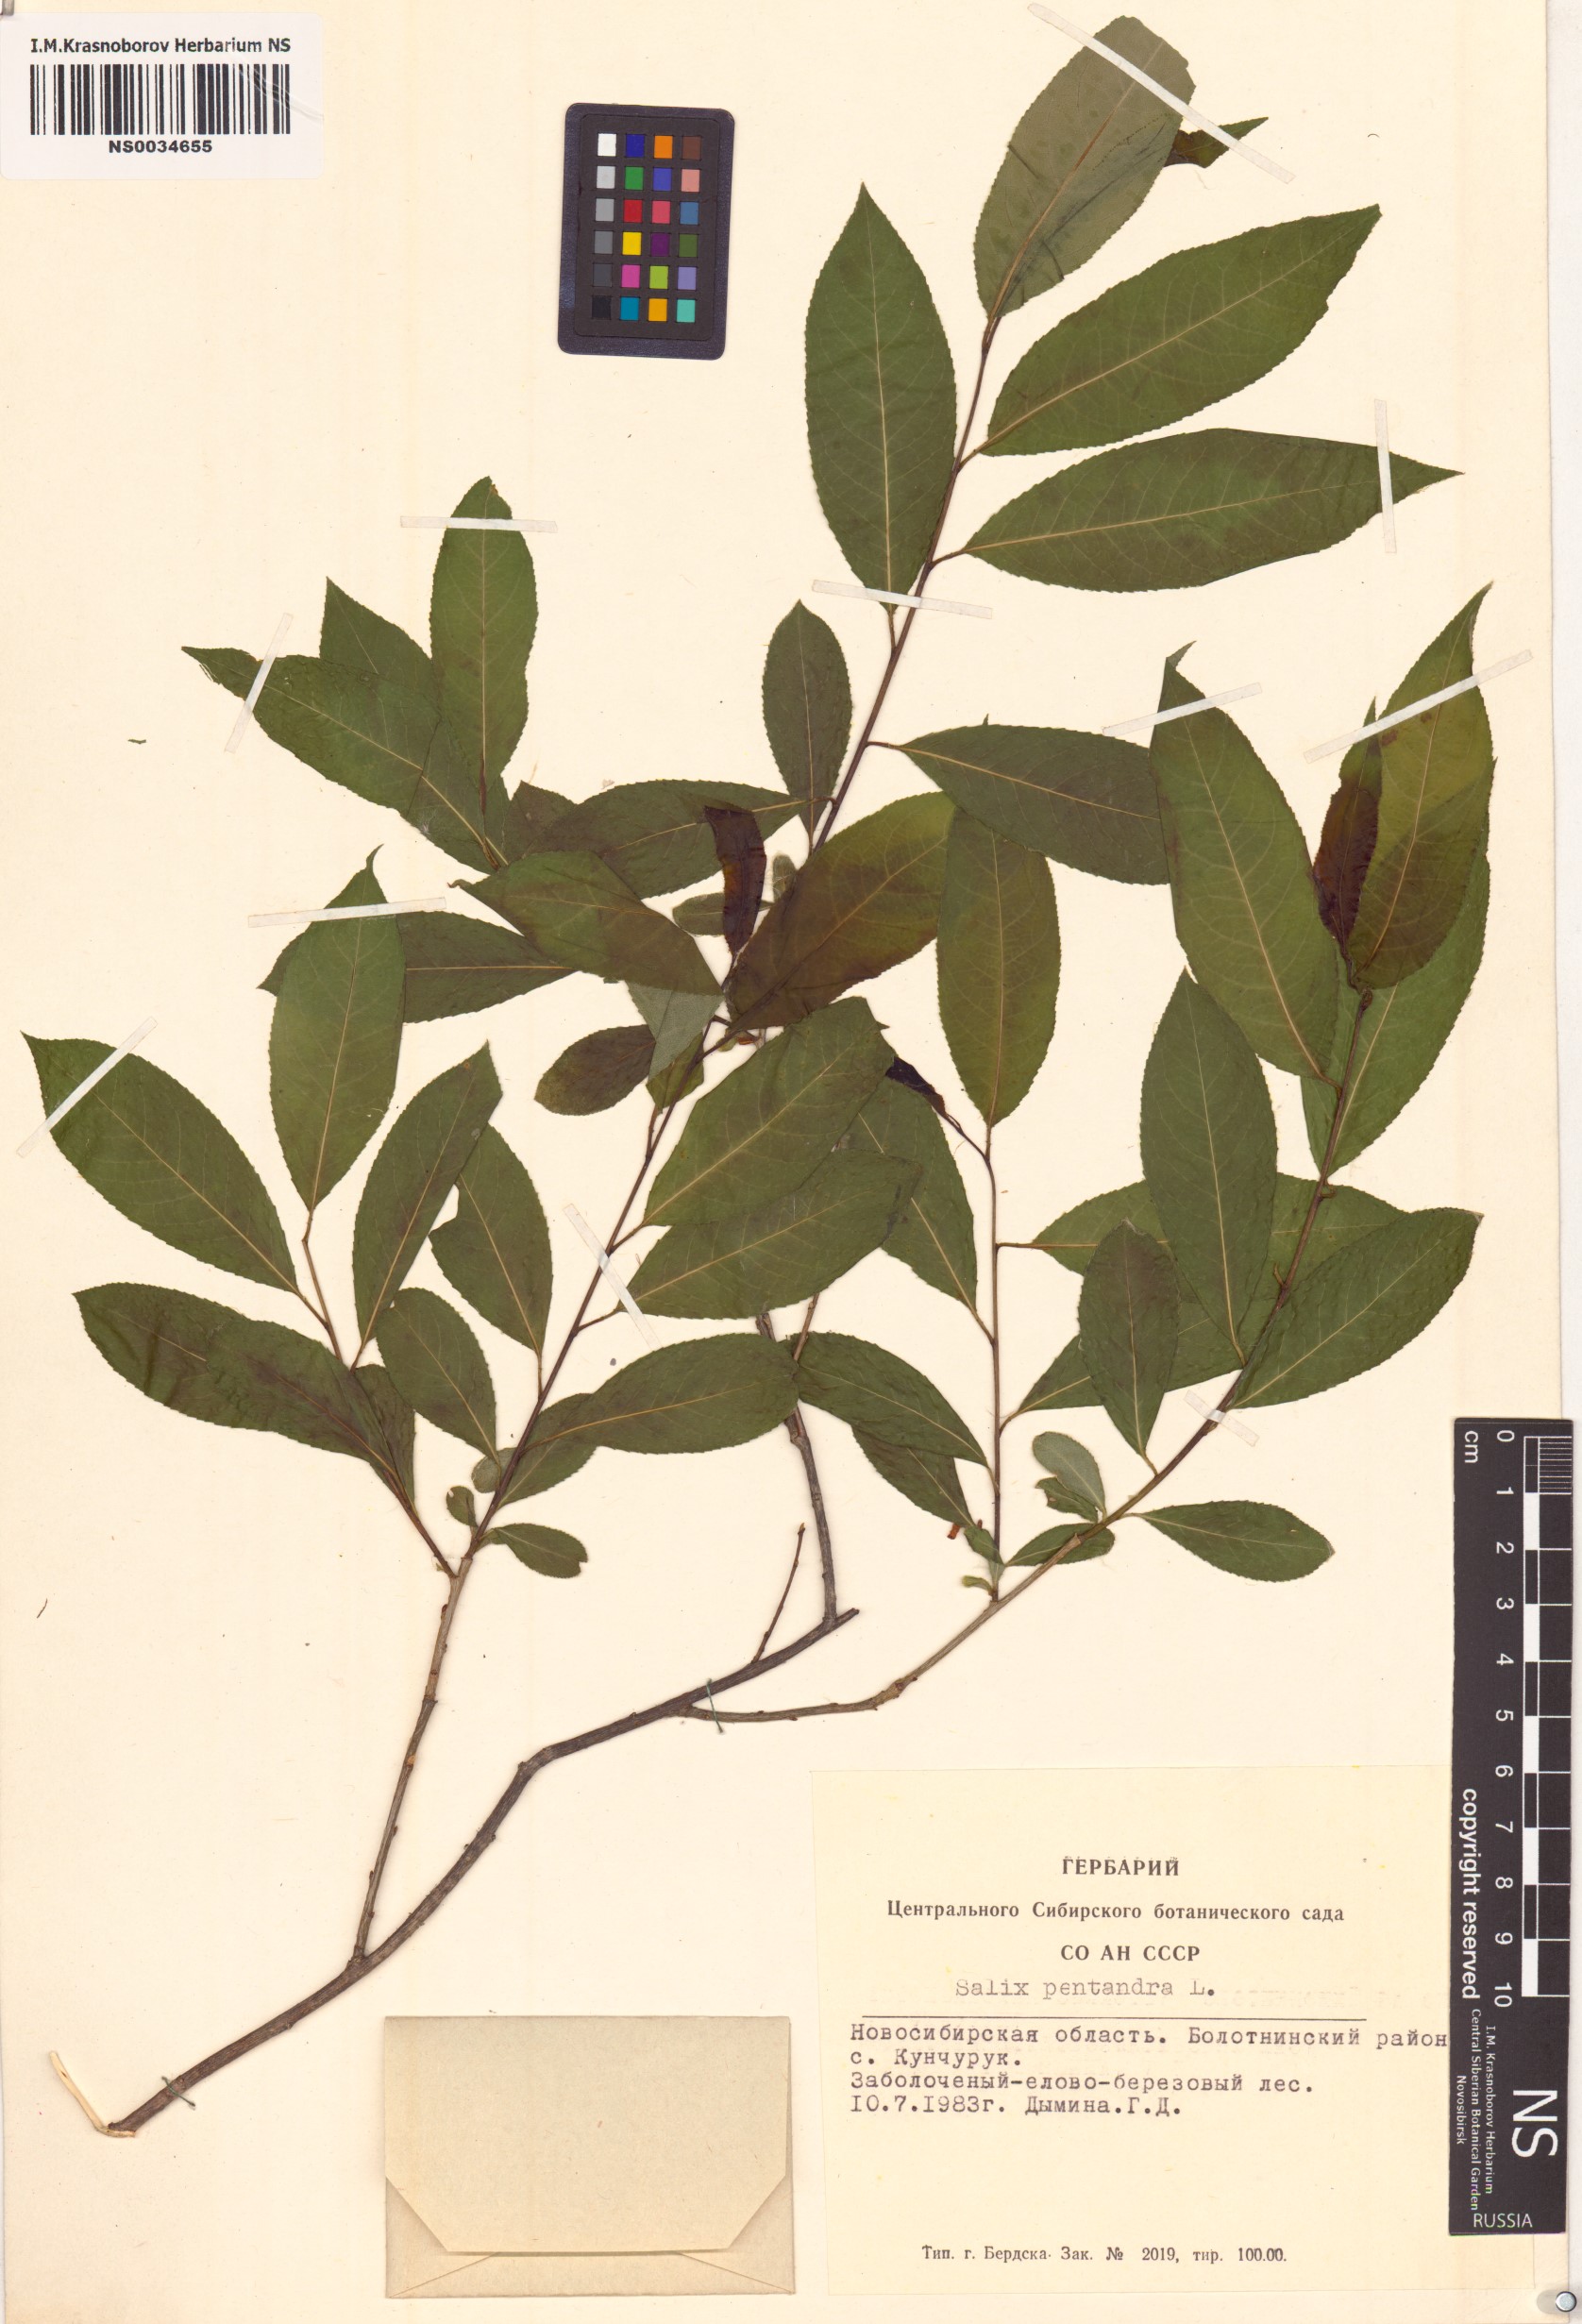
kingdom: Plantae
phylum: Tracheophyta
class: Magnoliopsida
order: Malpighiales
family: Salicaceae
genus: Salix
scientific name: Salix pentandra
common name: Bay willow
